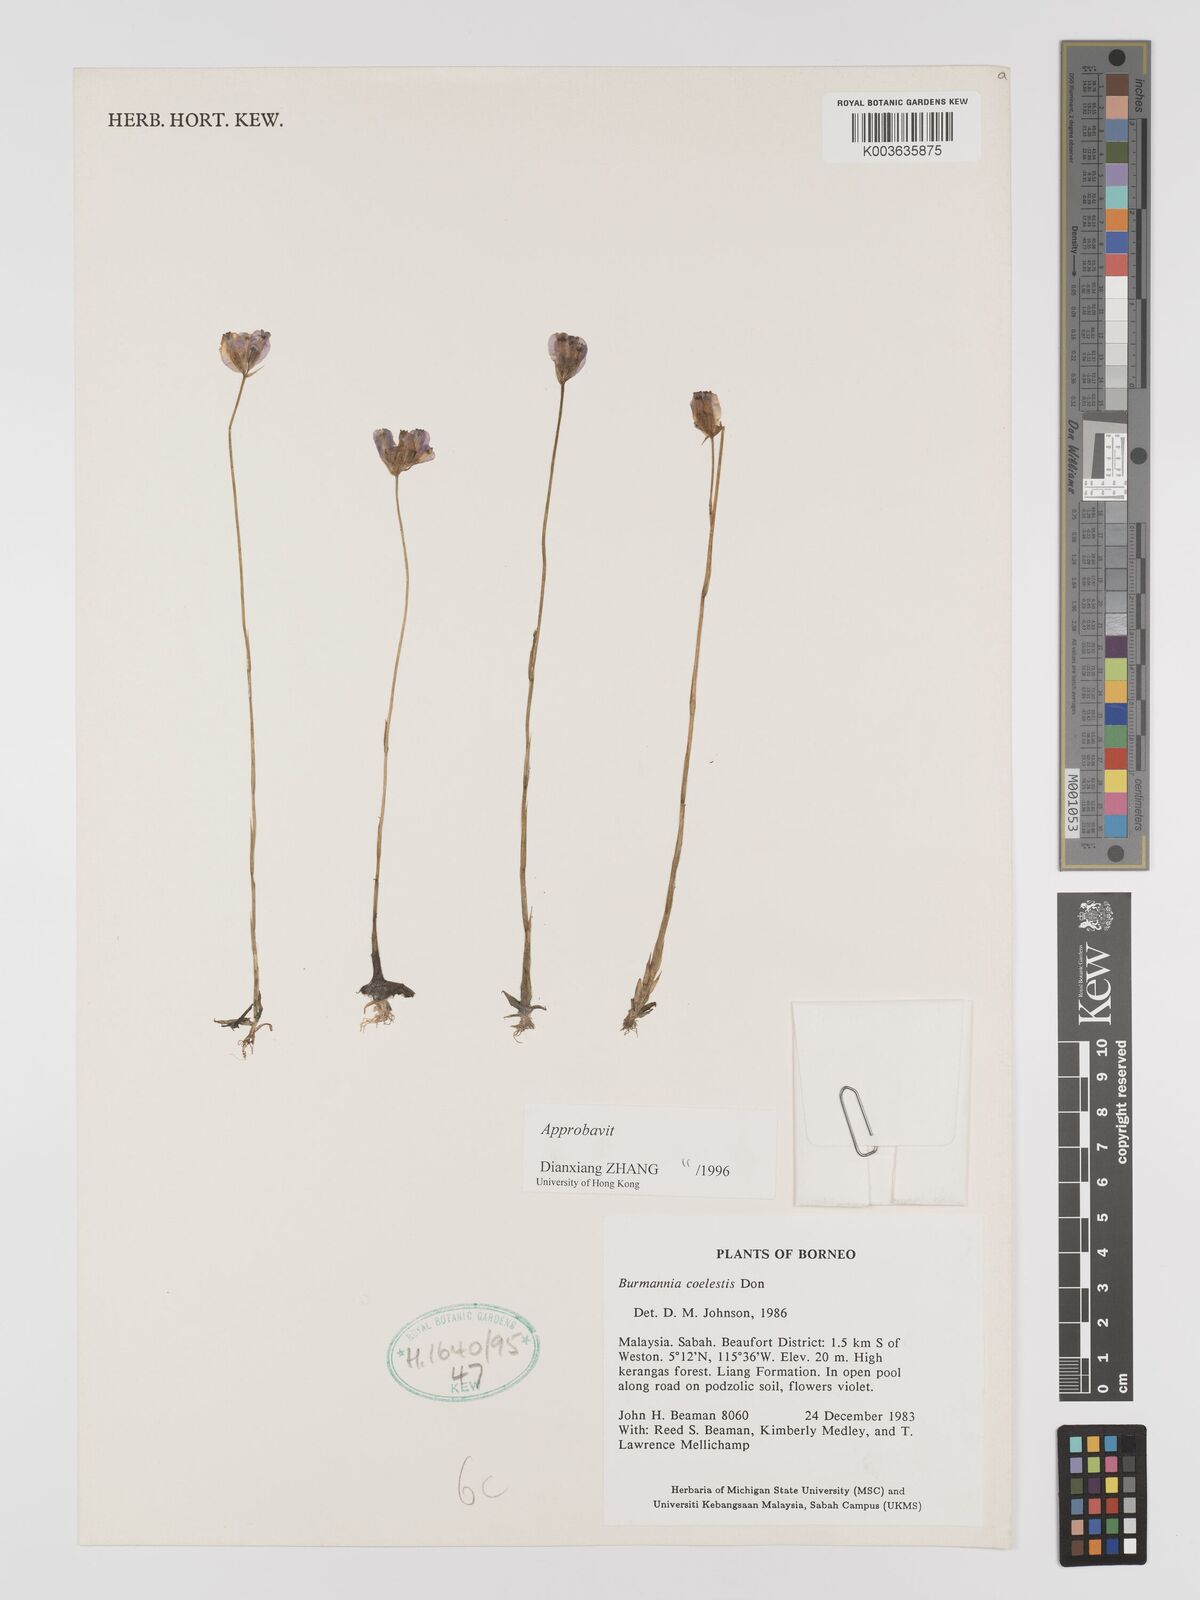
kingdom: Plantae
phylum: Tracheophyta
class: Liliopsida
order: Dioscoreales
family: Burmanniaceae
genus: Burmannia
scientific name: Burmannia coelestis
